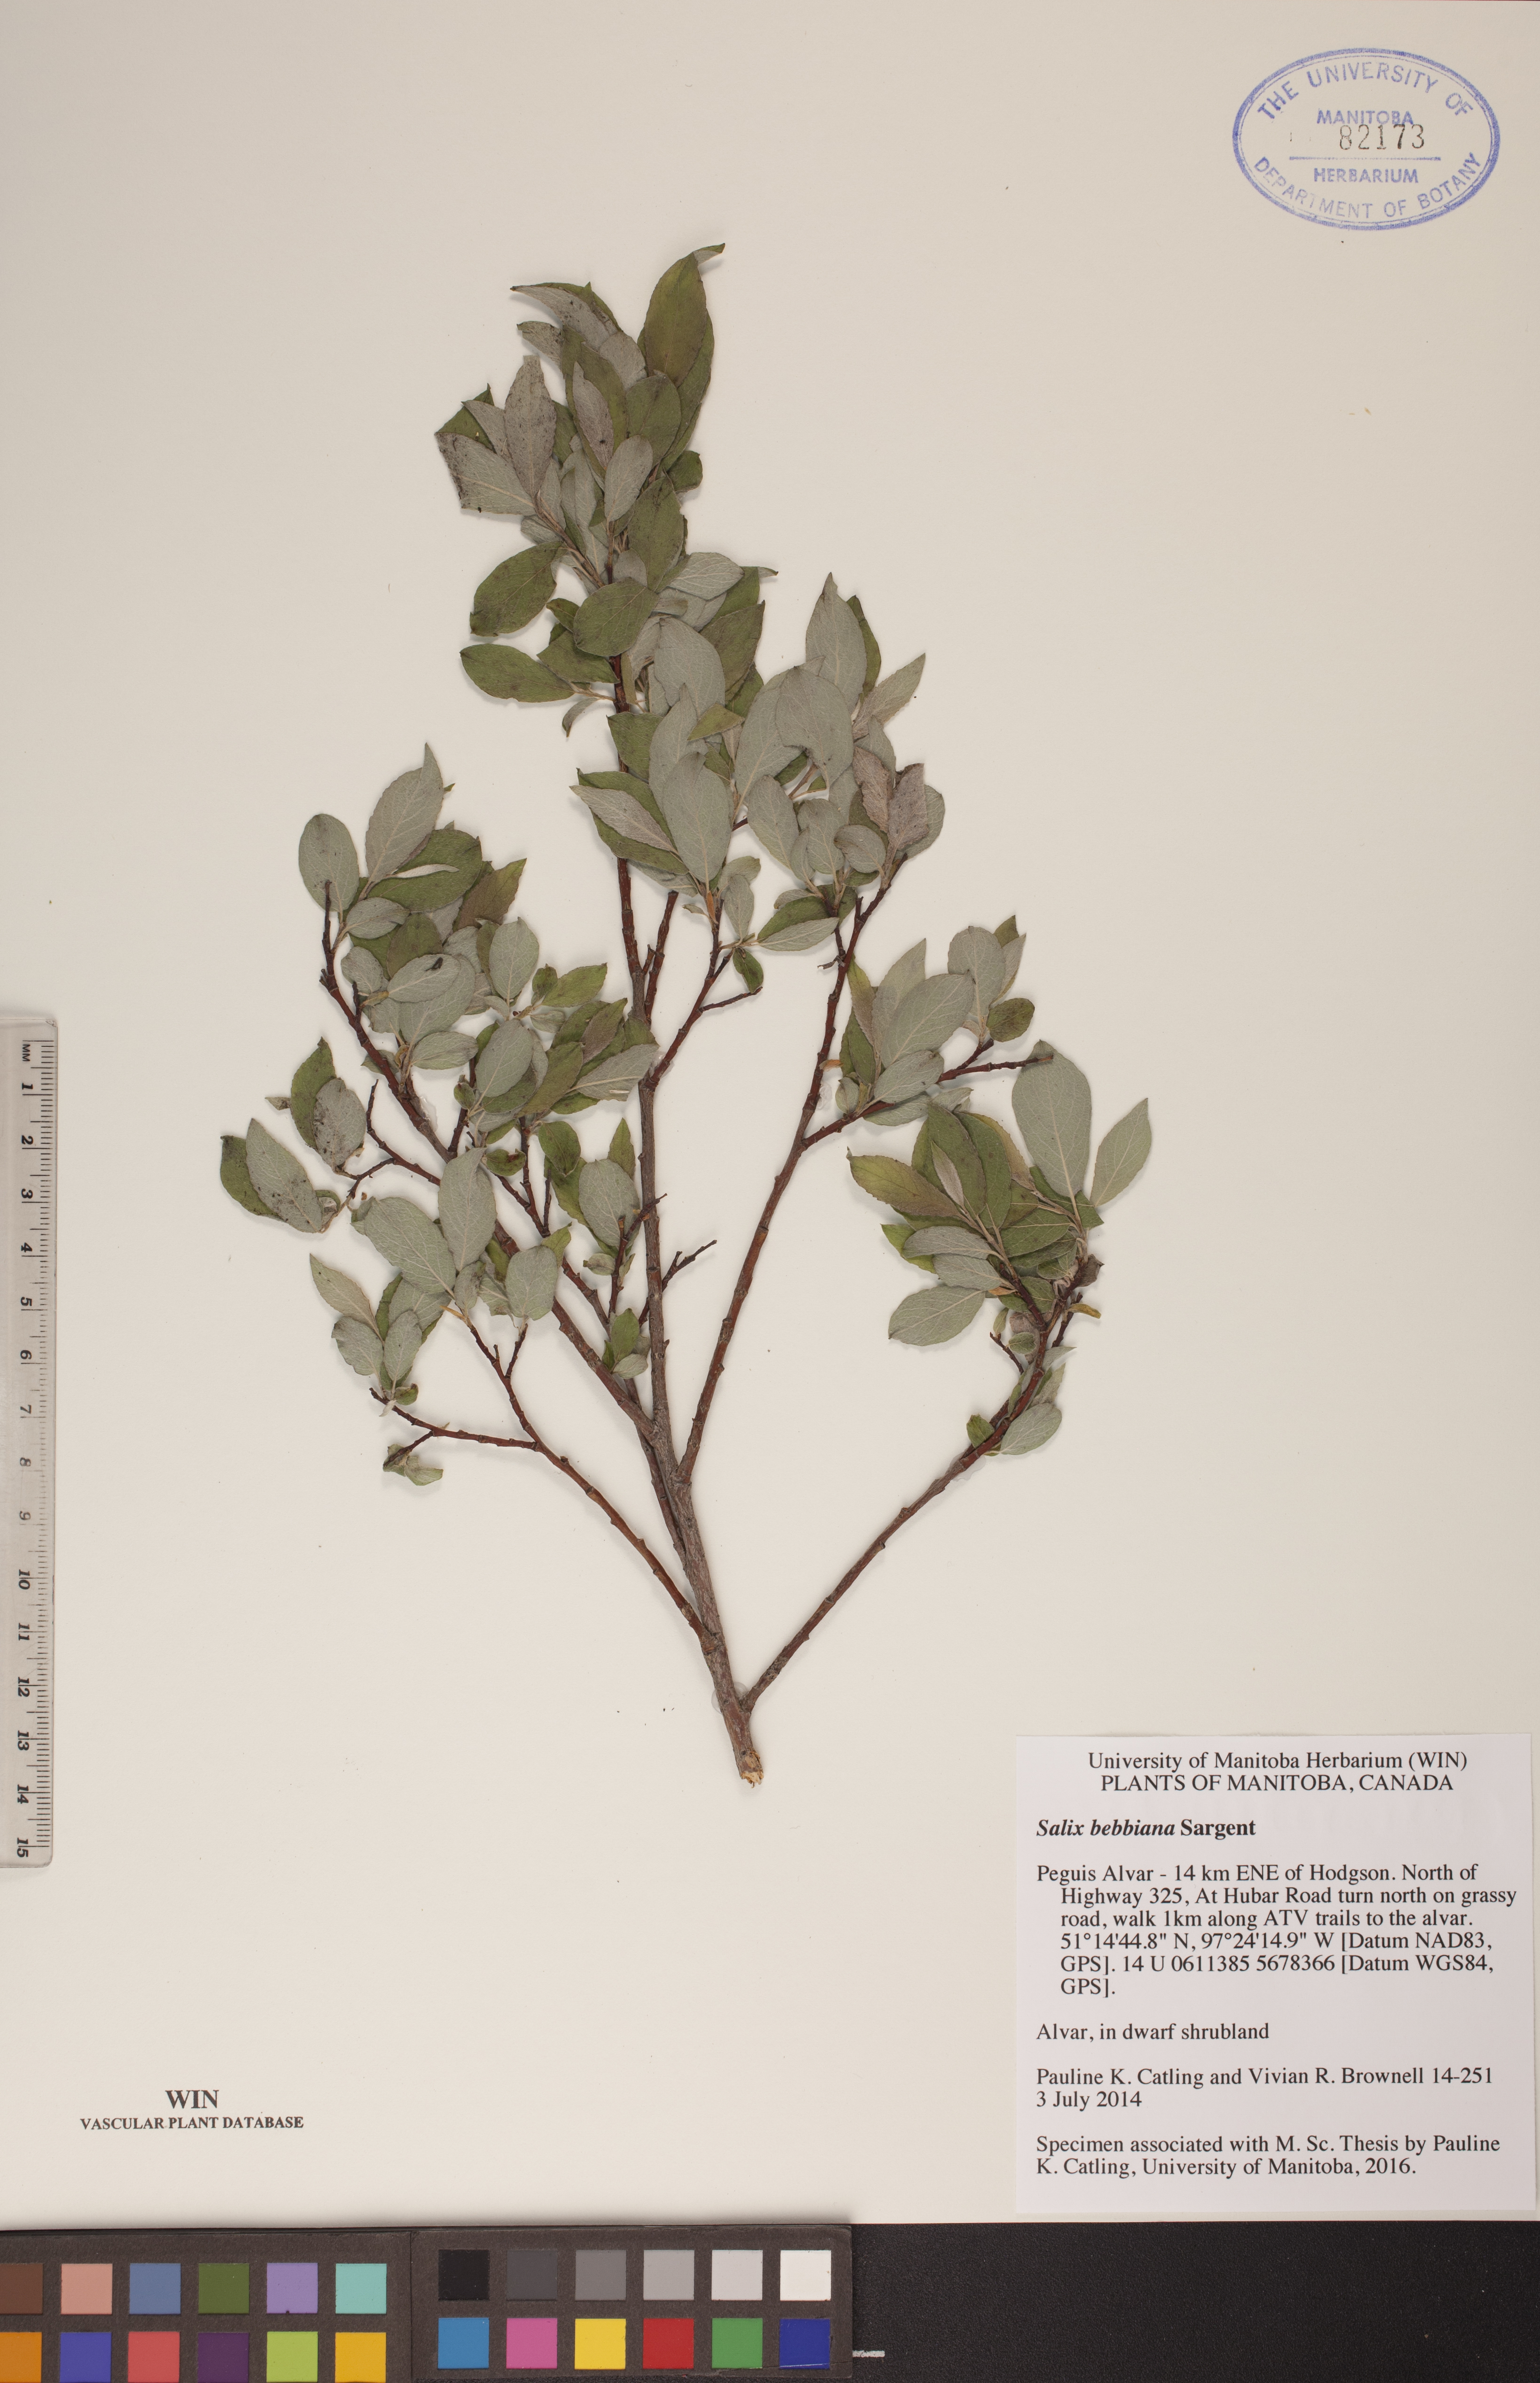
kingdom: Plantae
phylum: Tracheophyta
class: Magnoliopsida
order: Malpighiales
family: Salicaceae
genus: Salix
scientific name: Salix bebbiana
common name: Bebb's willow
